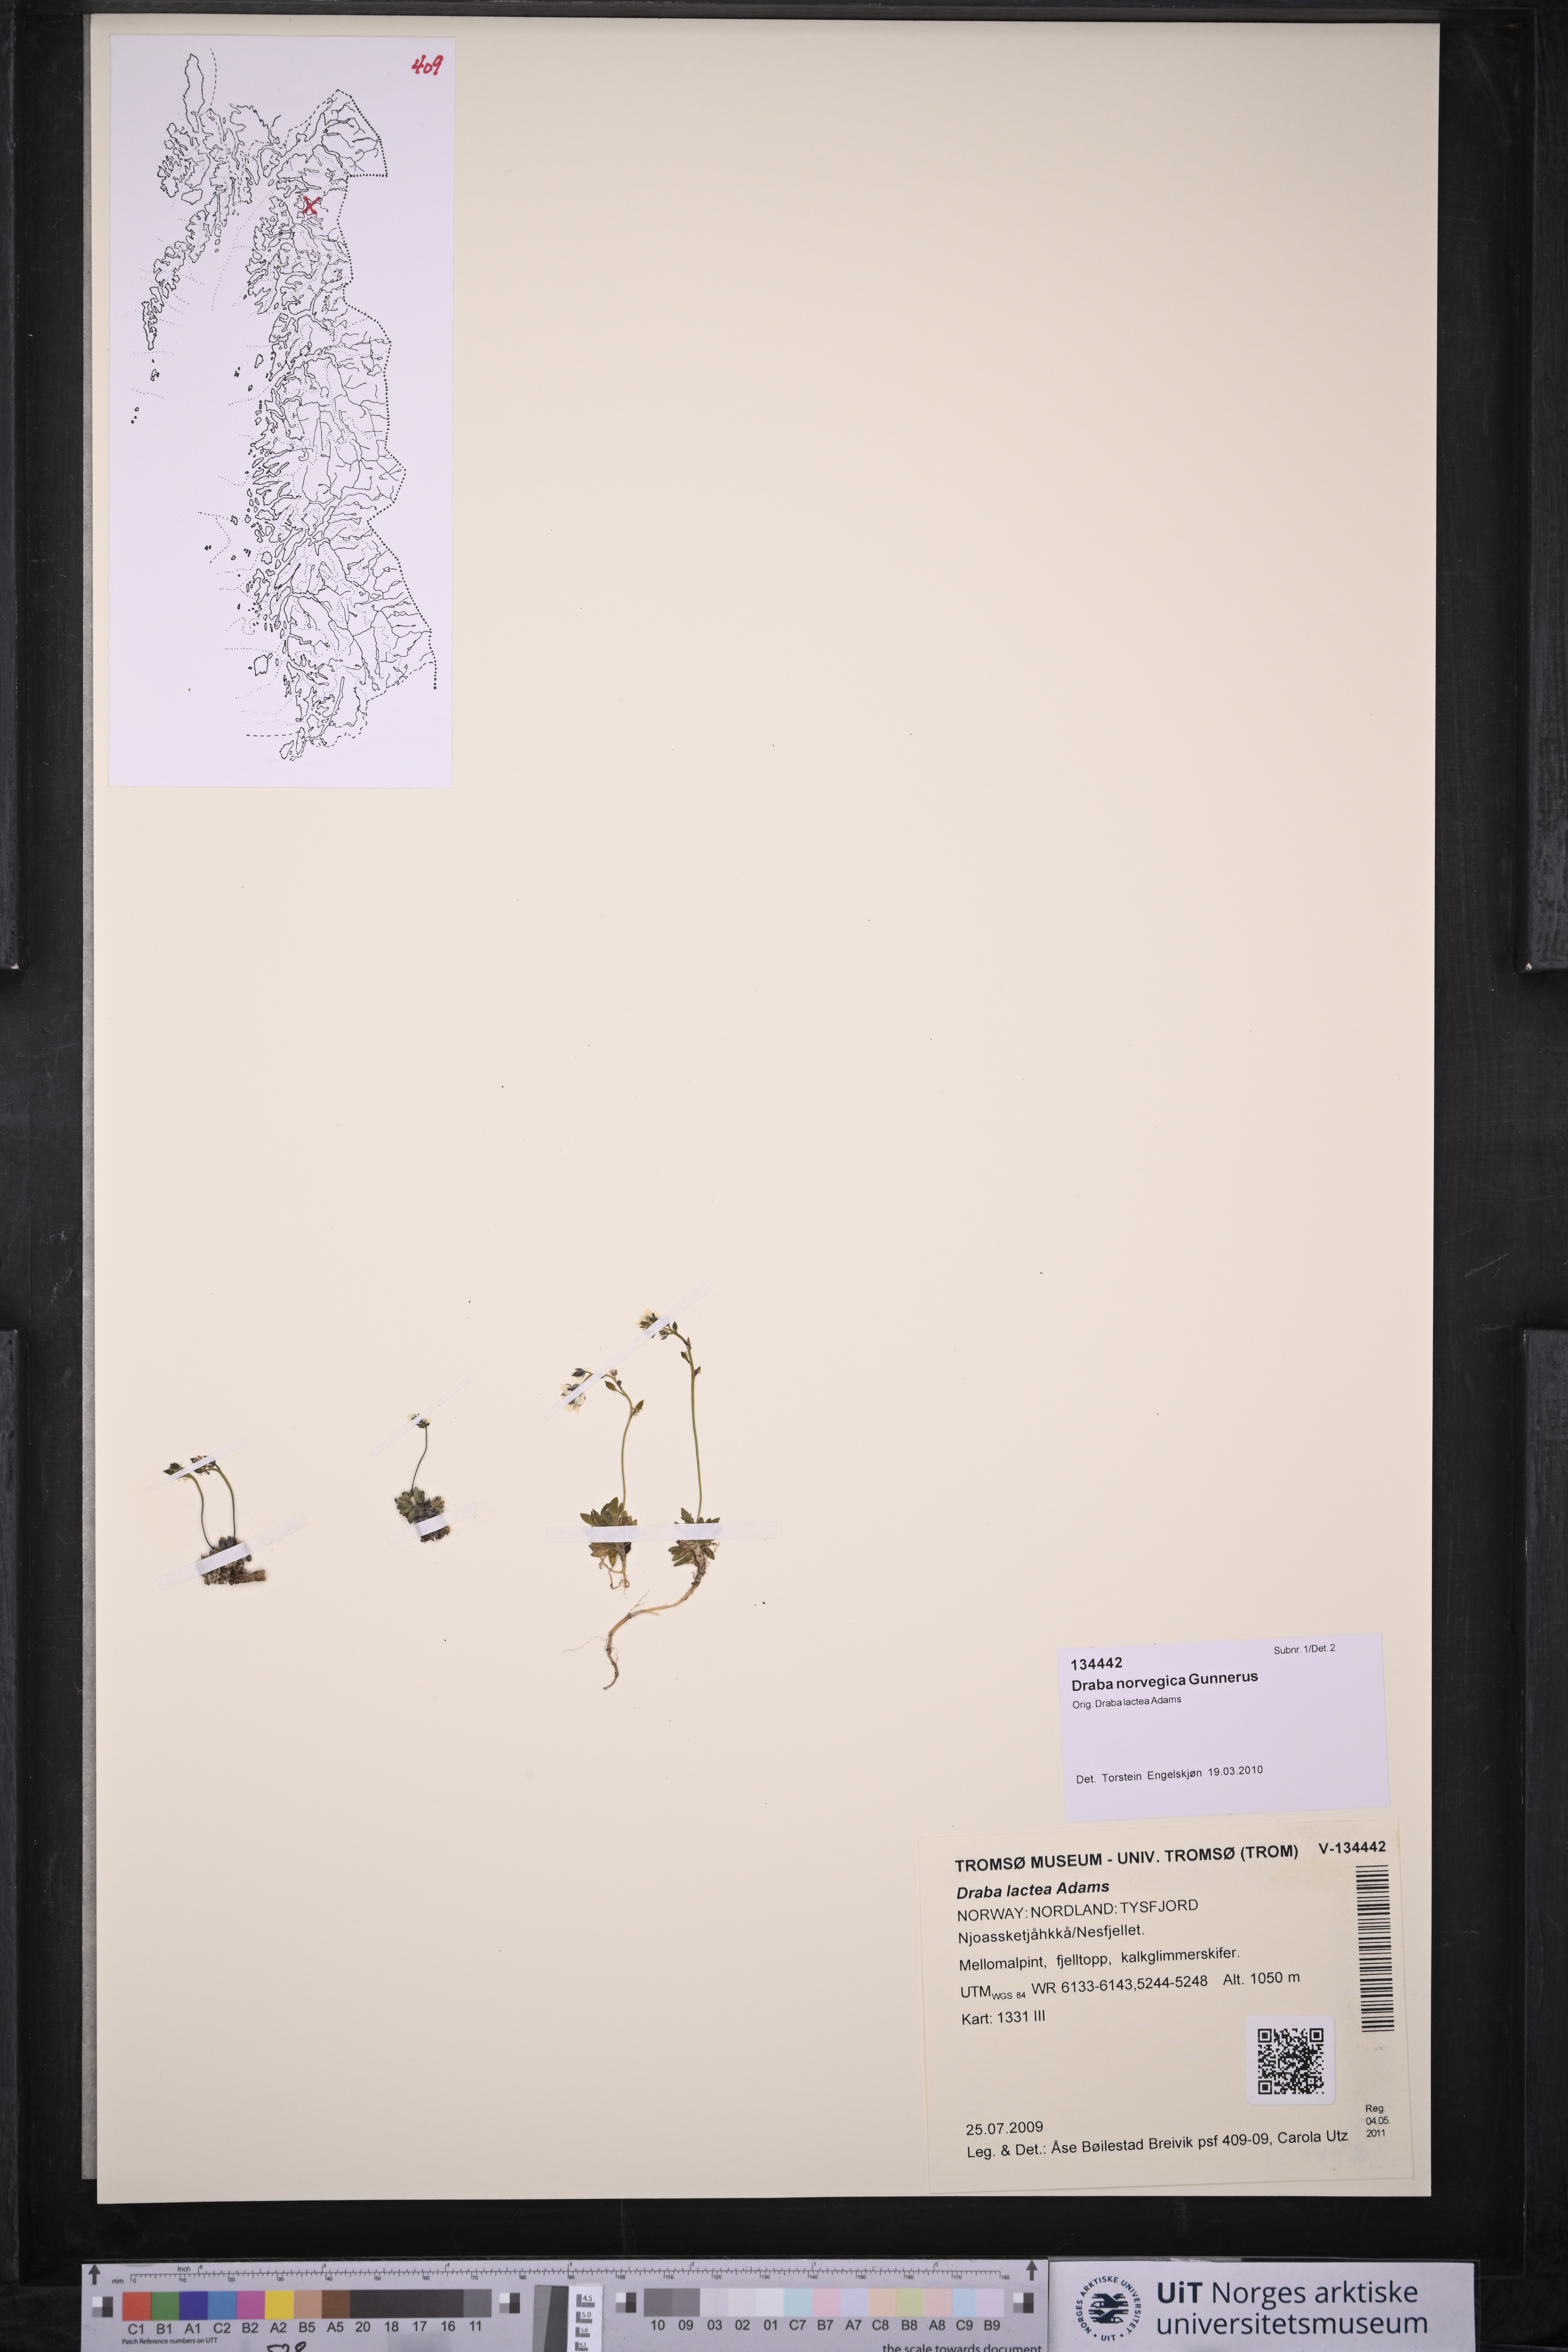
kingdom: Plantae
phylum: Tracheophyta
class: Magnoliopsida
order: Brassicales
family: Brassicaceae
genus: Draba
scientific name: Draba norvegica
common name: Rock whitlowgrass
